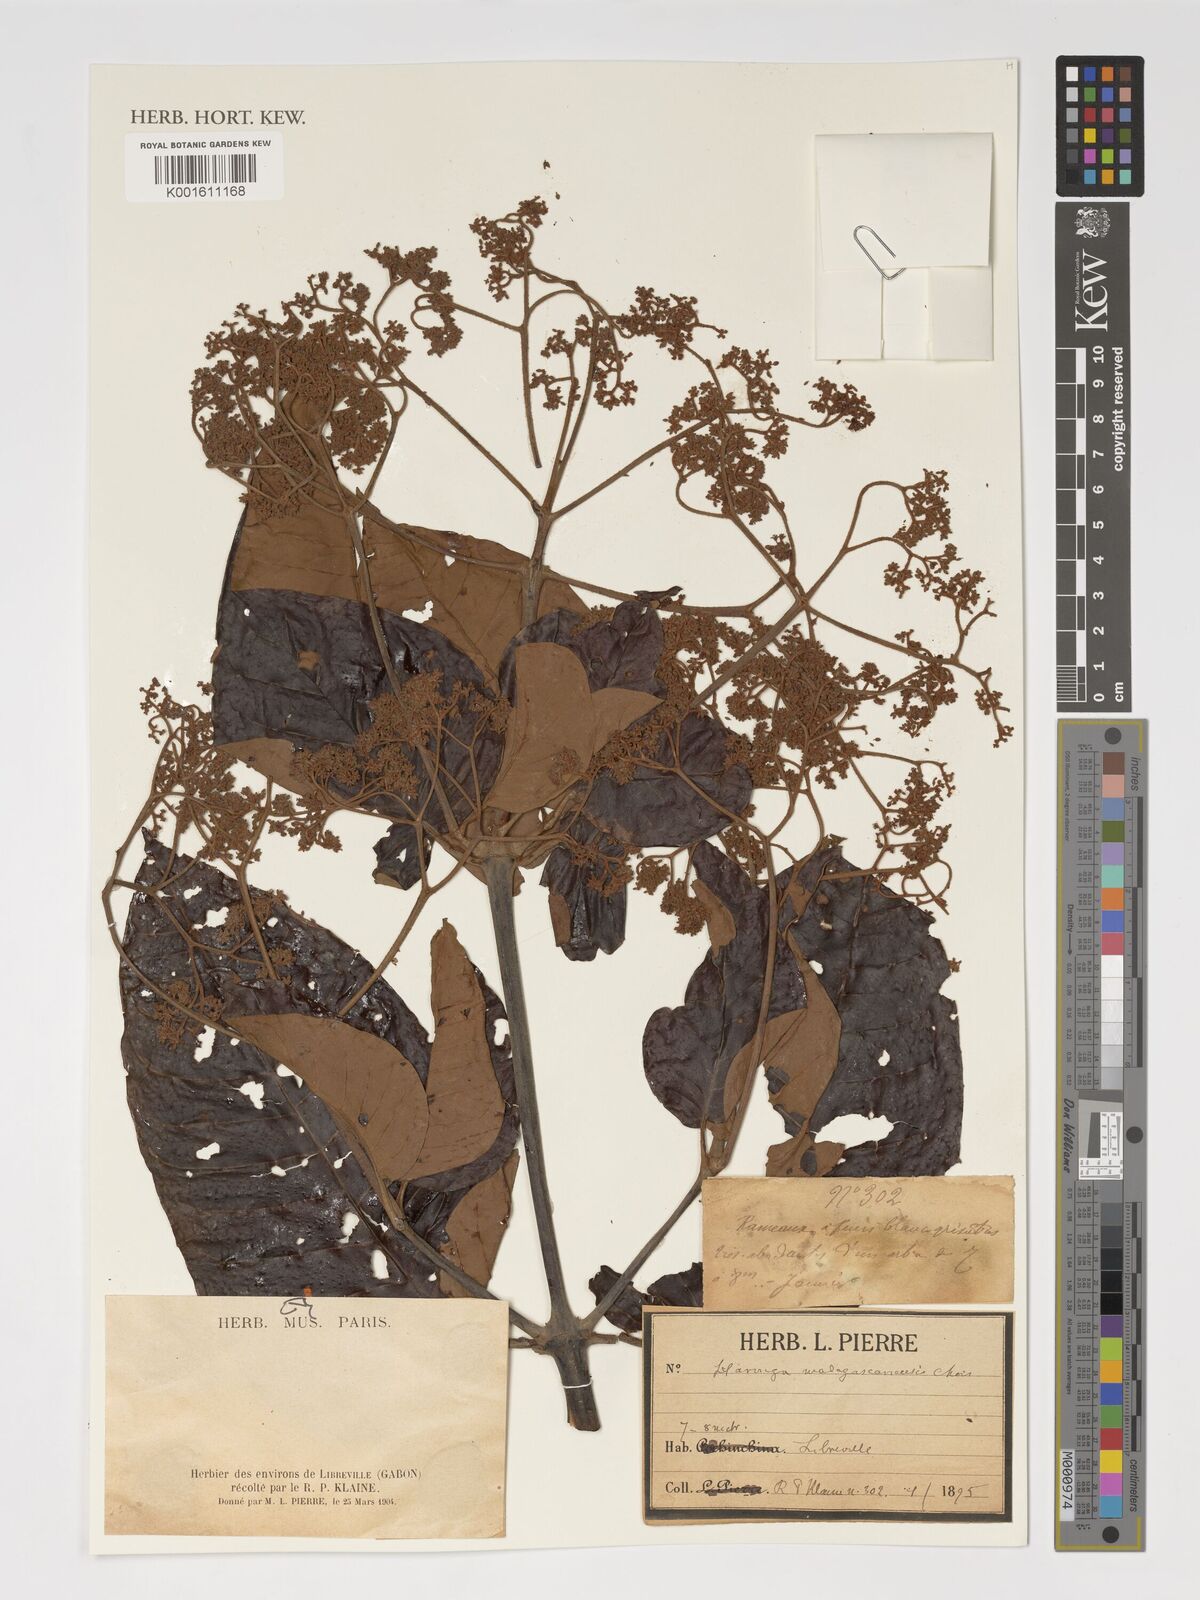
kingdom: Plantae
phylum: Tracheophyta
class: Magnoliopsida
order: Malpighiales
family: Hypericaceae
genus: Harungana
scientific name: Harungana madagascariensis
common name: Orange milktree
